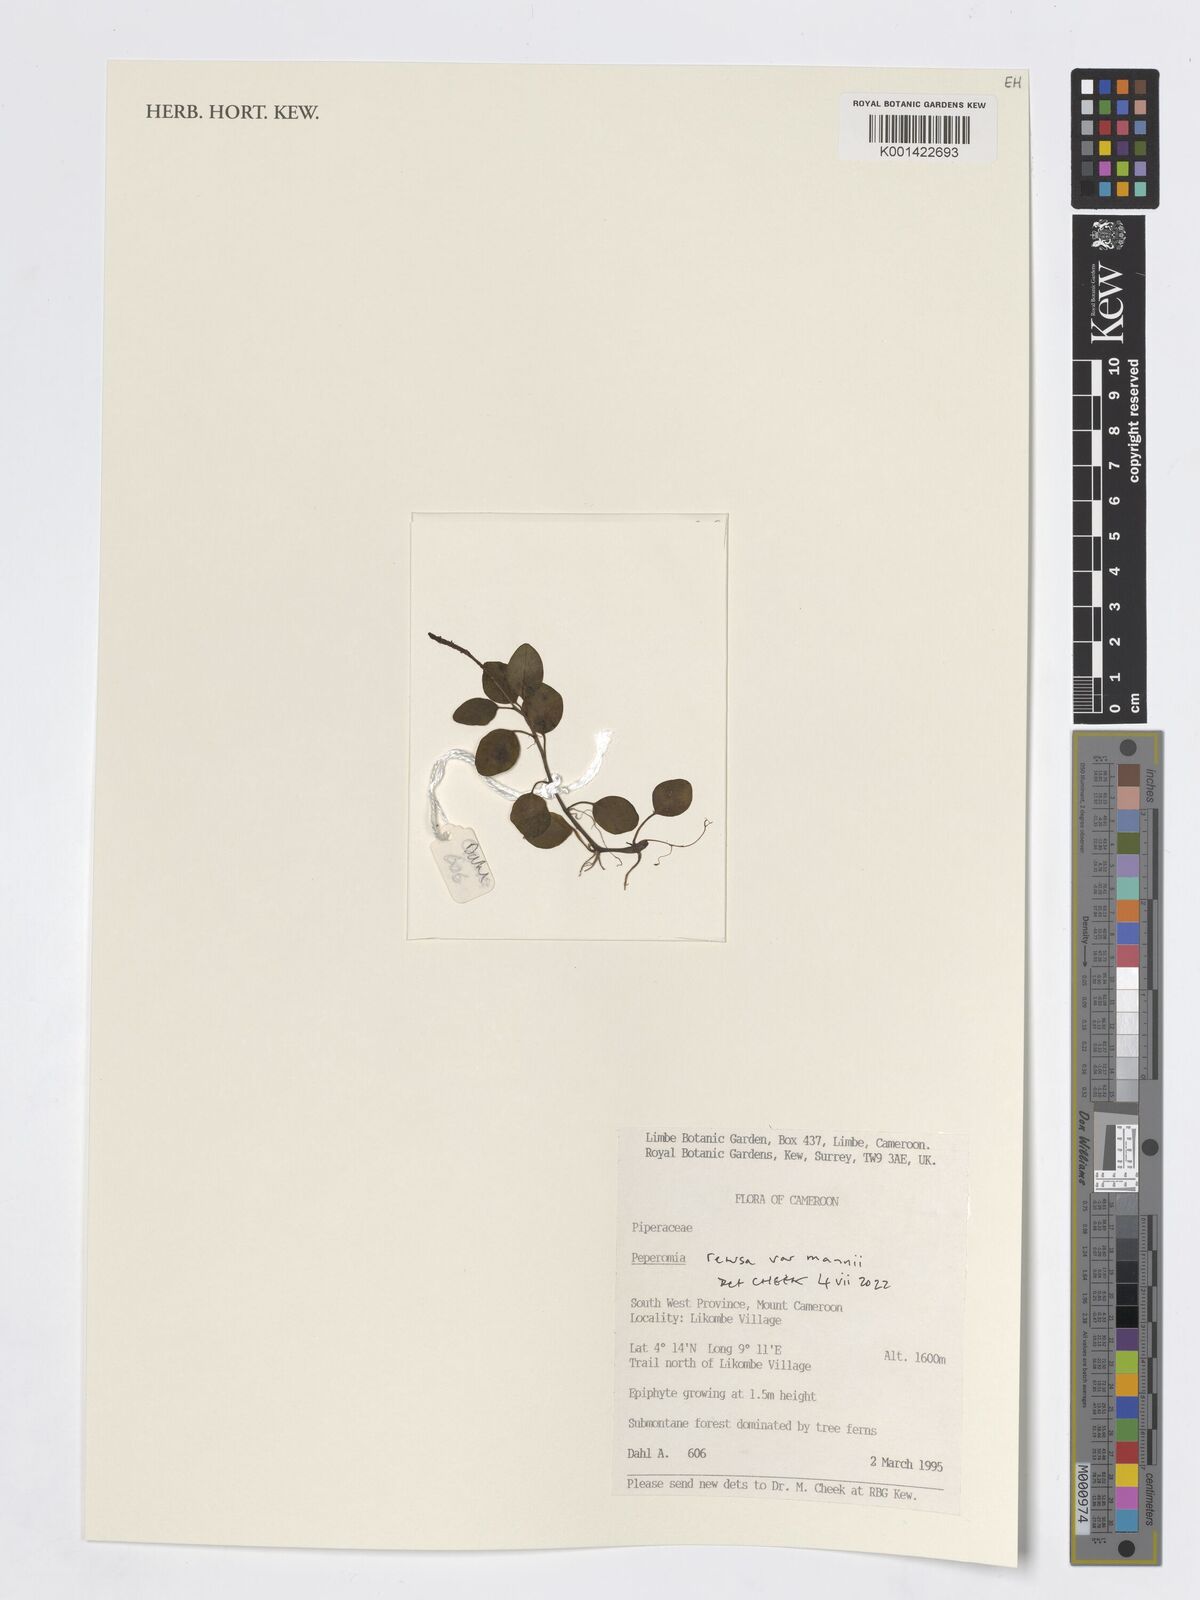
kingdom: Plantae
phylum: Tracheophyta
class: Magnoliopsida
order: Piperales
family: Piperaceae
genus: Peperomia
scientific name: Peperomia
